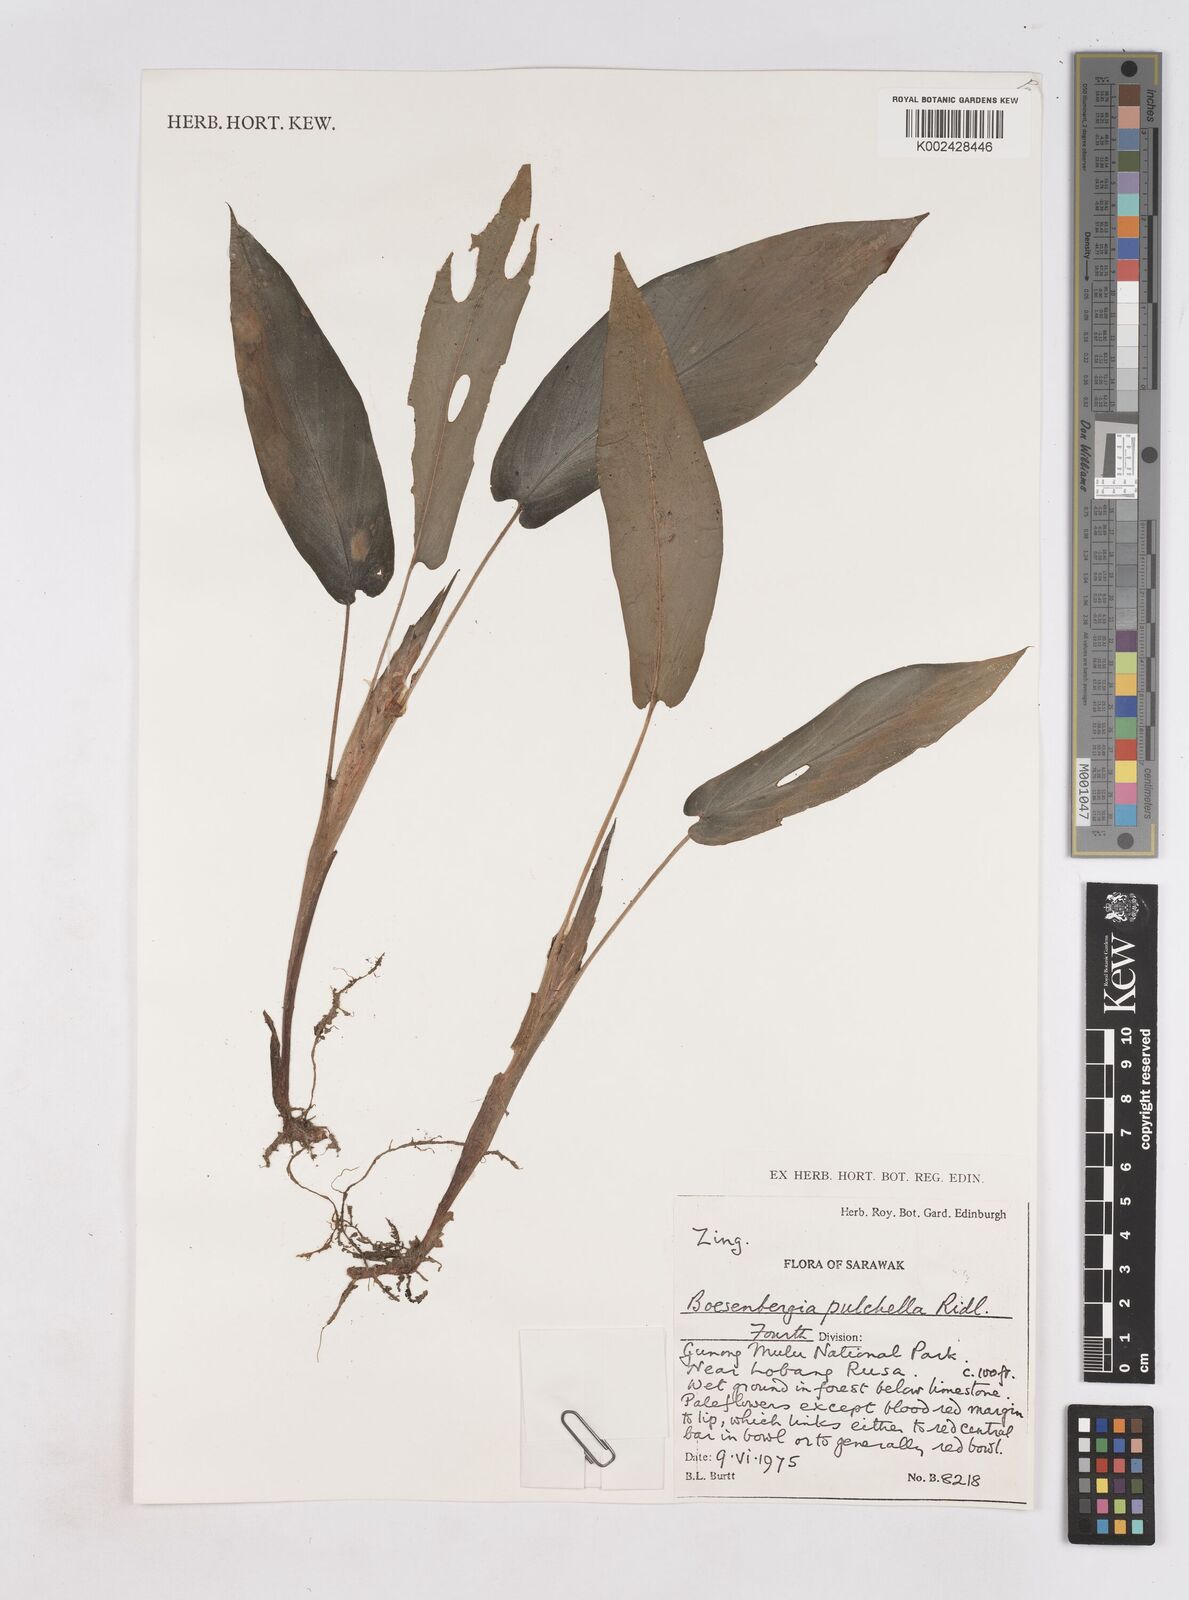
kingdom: Plantae
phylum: Tracheophyta
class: Liliopsida
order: Zingiberales
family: Zingiberaceae
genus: Boesenbergia
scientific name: Boesenbergia pulchella
